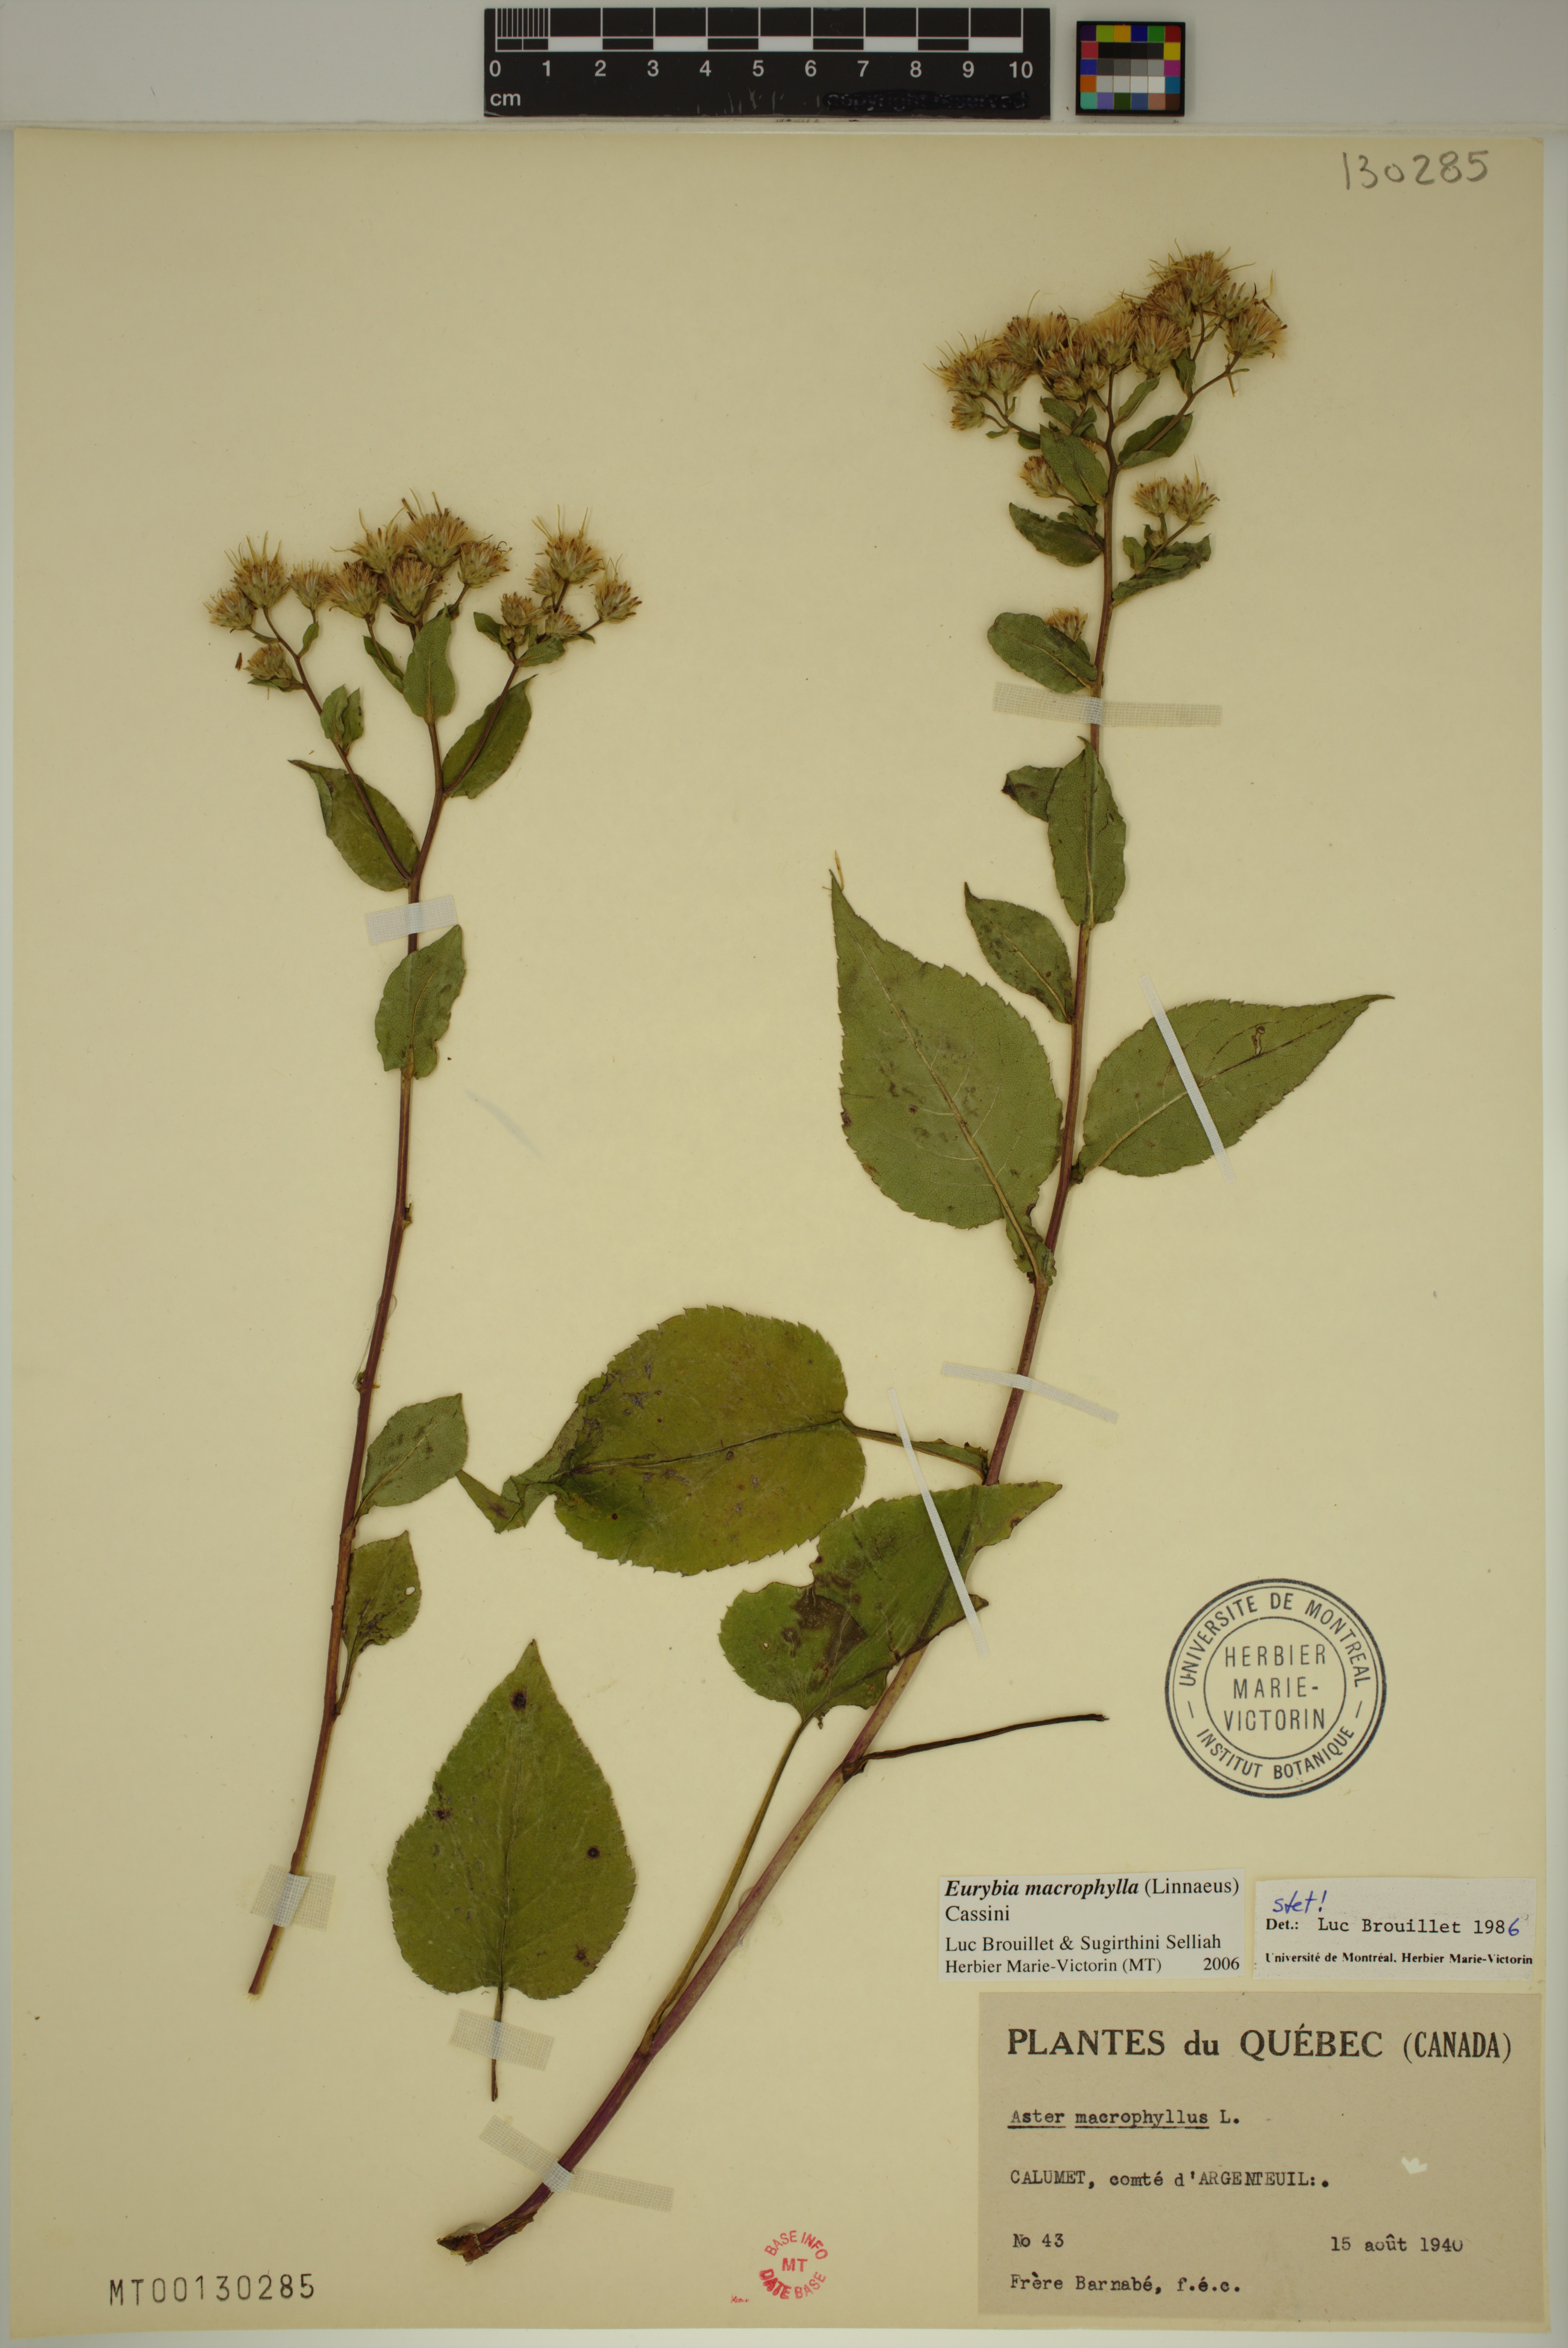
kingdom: Plantae
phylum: Tracheophyta
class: Magnoliopsida
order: Asterales
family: Asteraceae
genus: Eurybia
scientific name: Eurybia macrophylla
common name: Big-leaved aster
